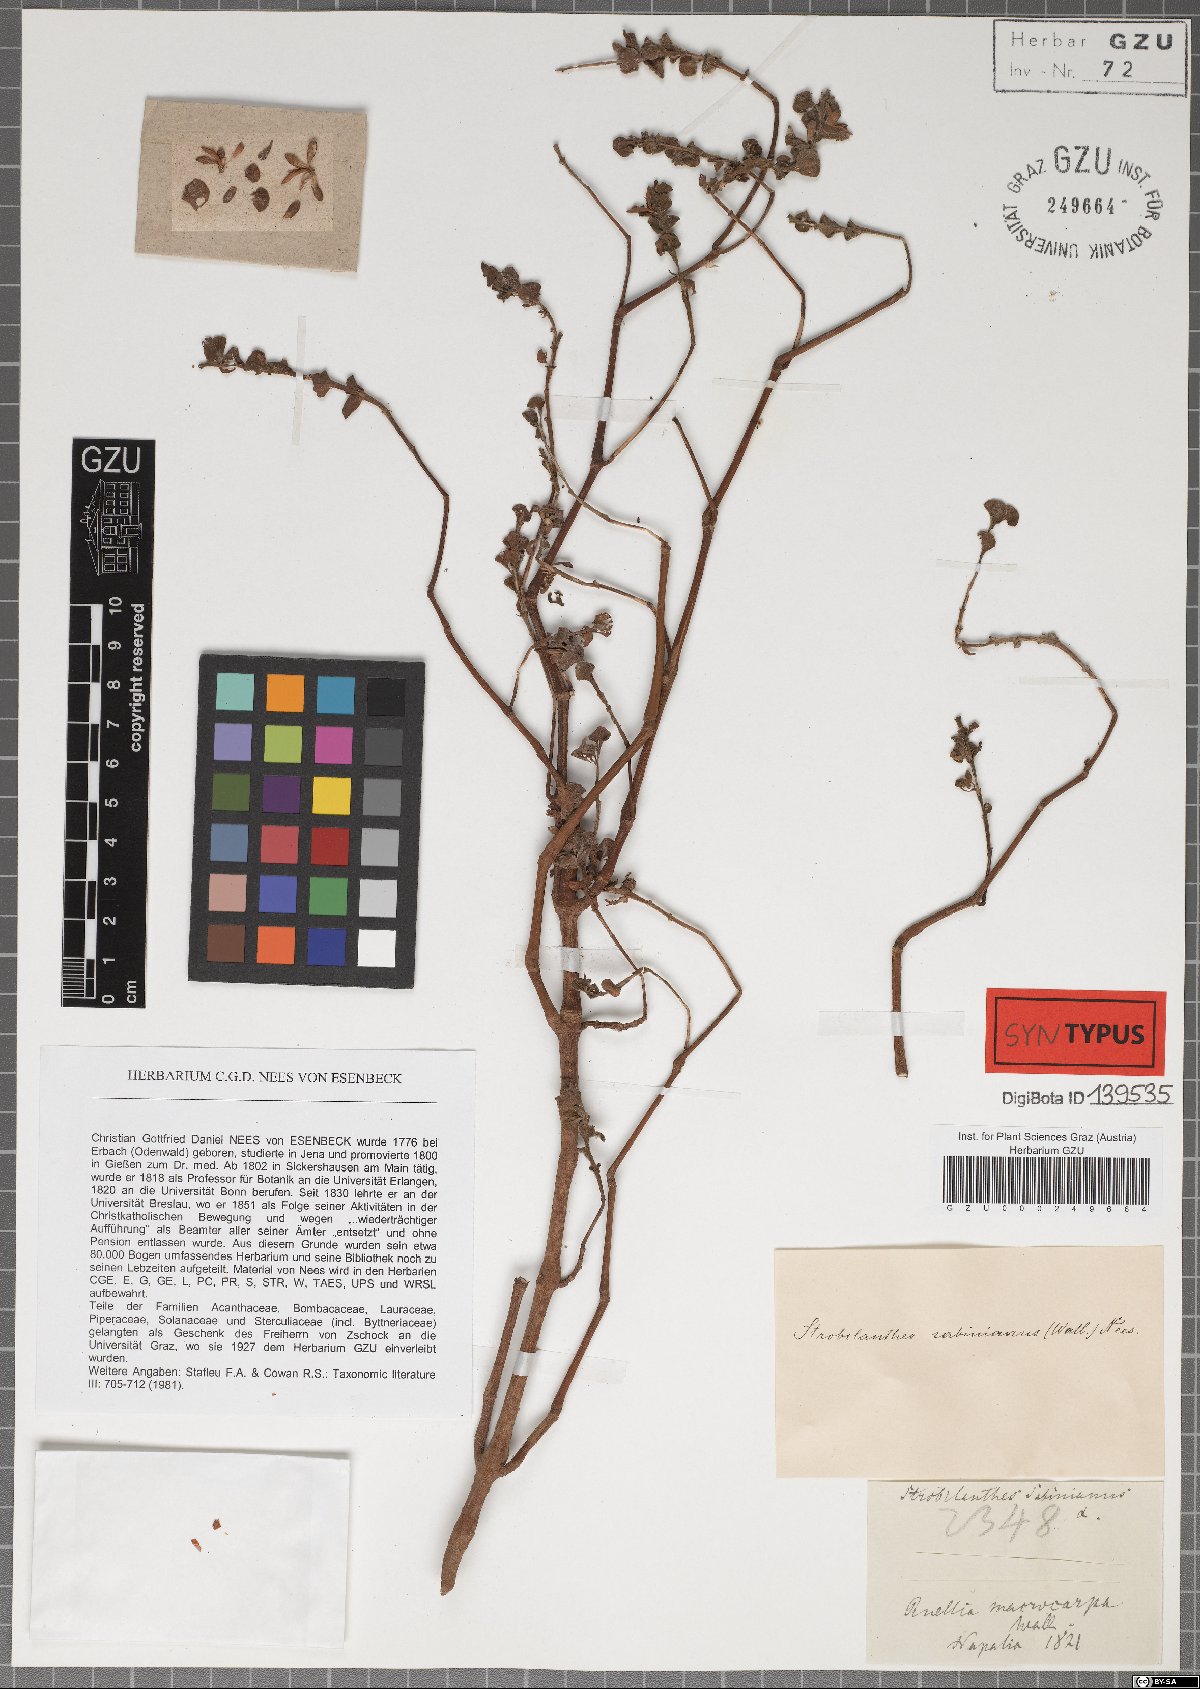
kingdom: Plantae
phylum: Tracheophyta
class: Magnoliopsida
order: Lamiales
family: Acanthaceae
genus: Strobilanthes
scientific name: Strobilanthes sabiniana
